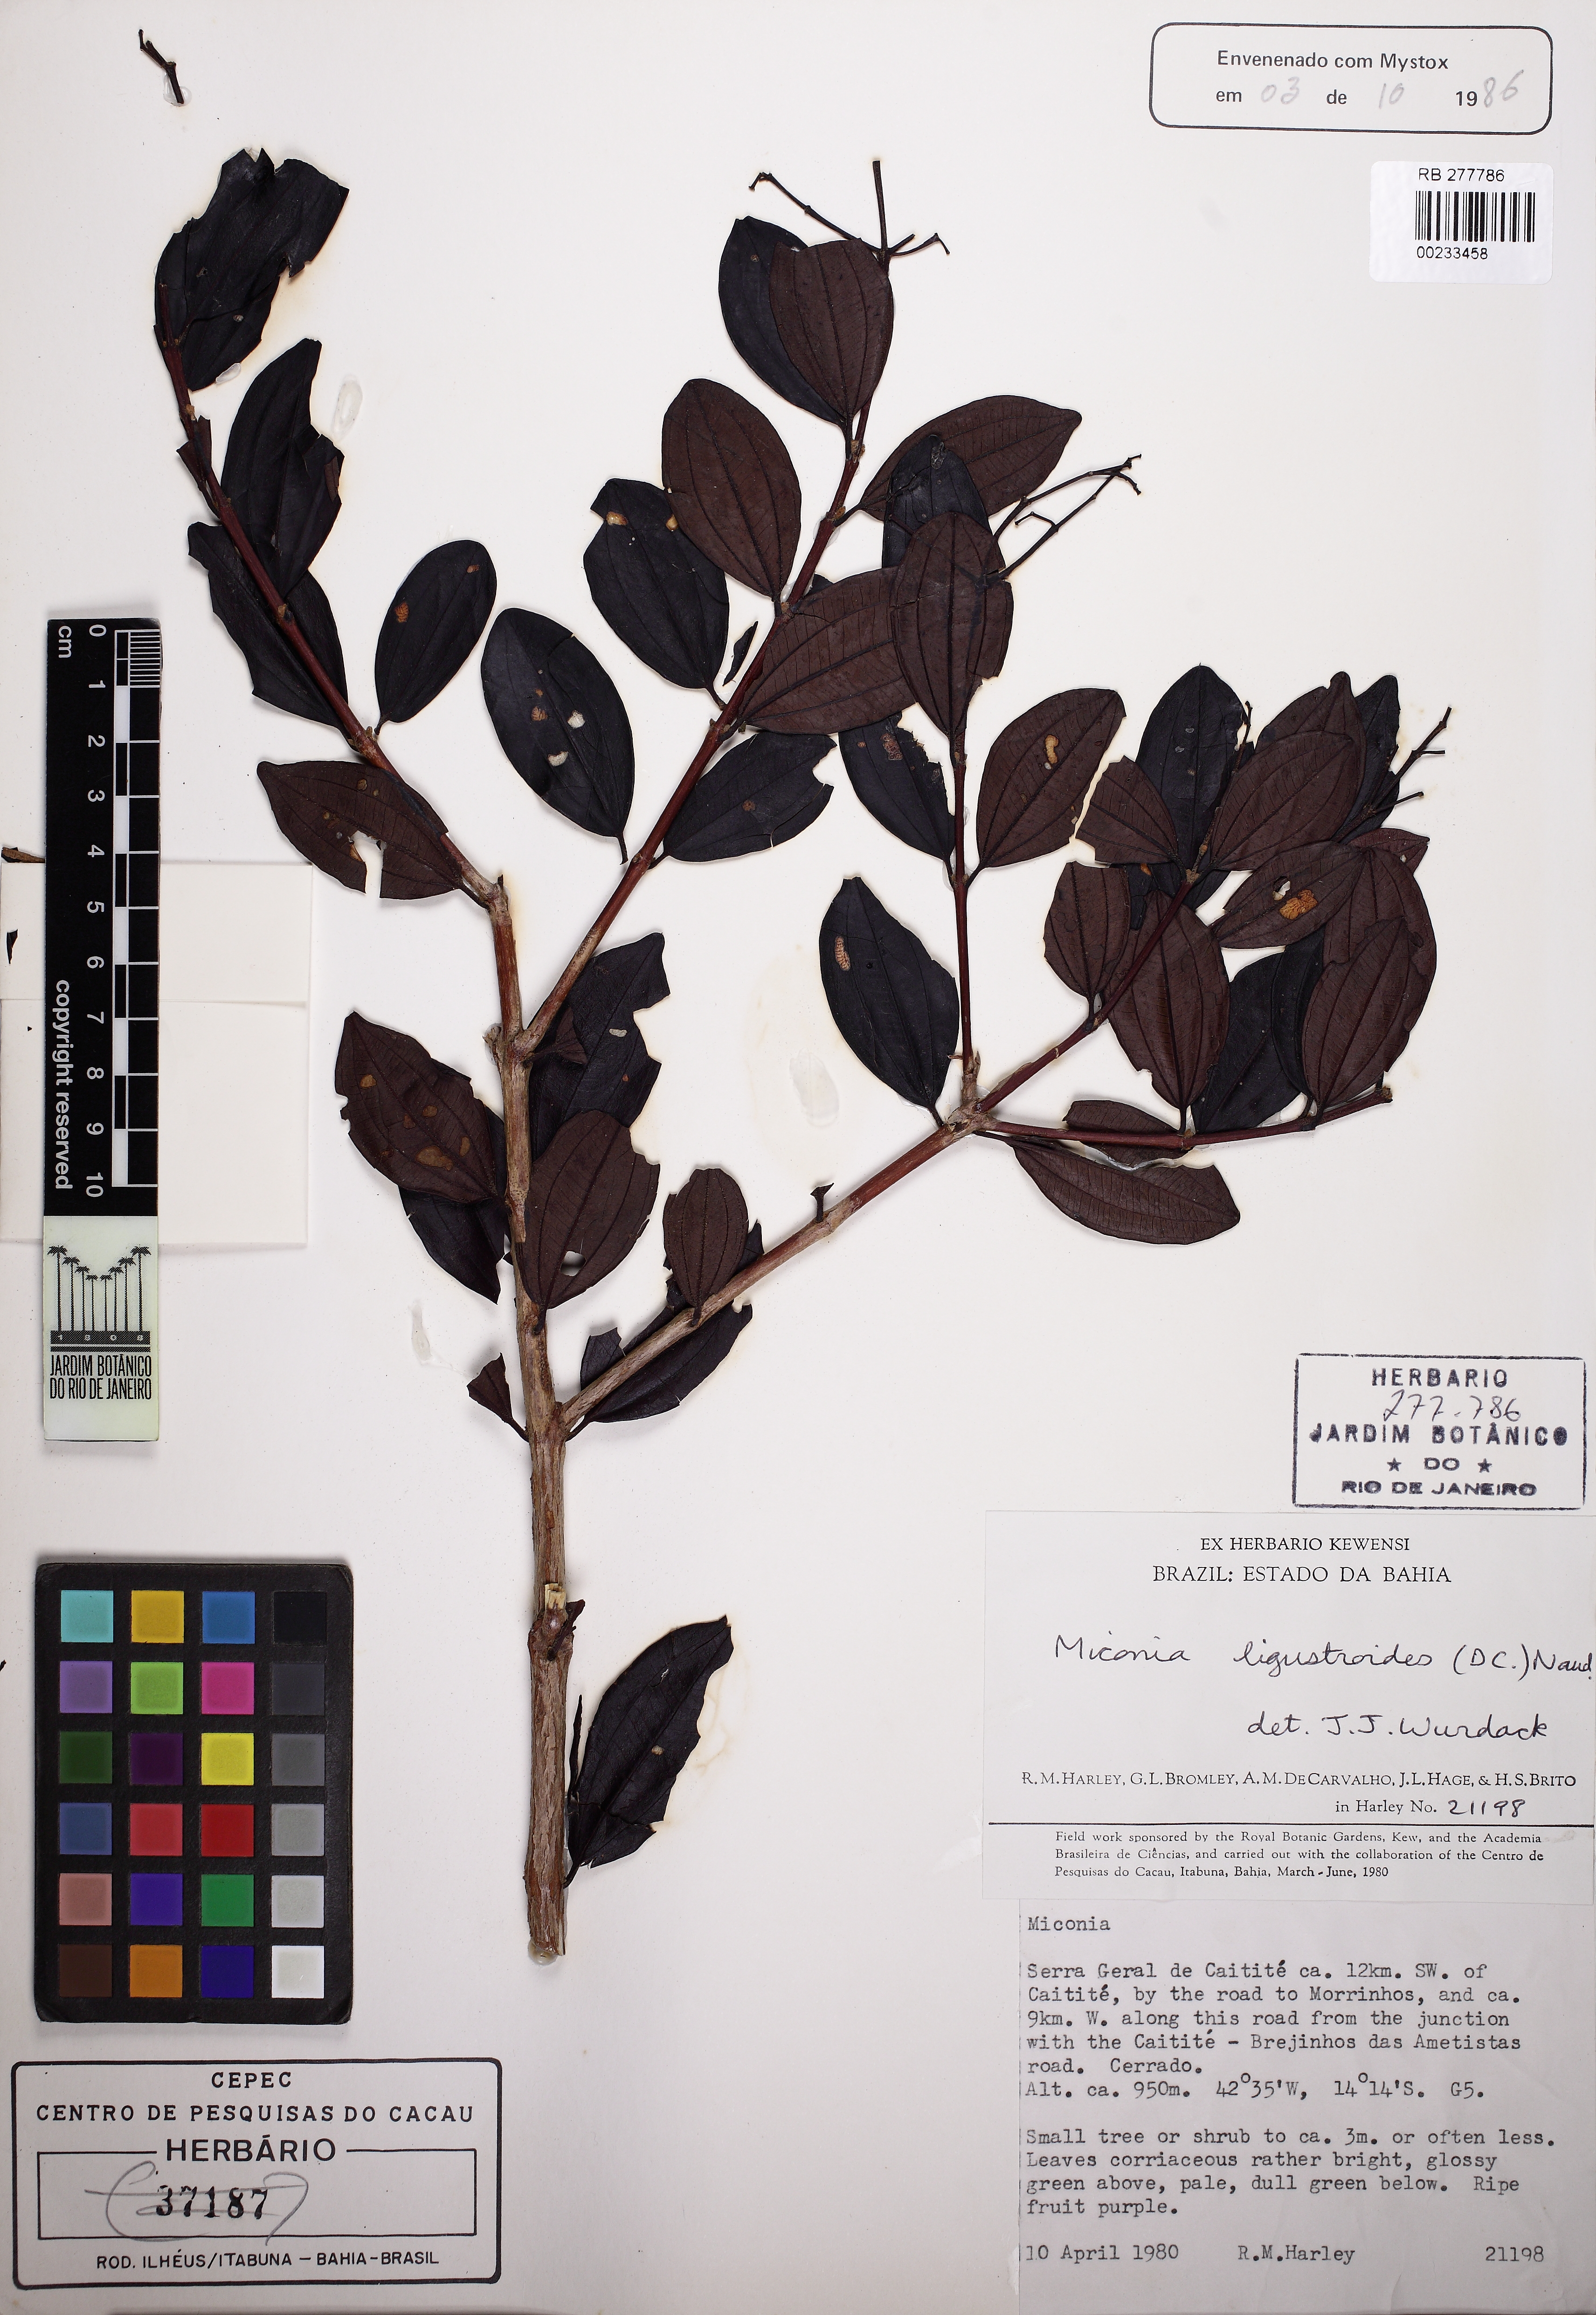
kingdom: Plantae
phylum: Tracheophyta
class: Magnoliopsida
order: Myrtales
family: Melastomataceae
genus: Miconia
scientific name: Miconia ligustroides
